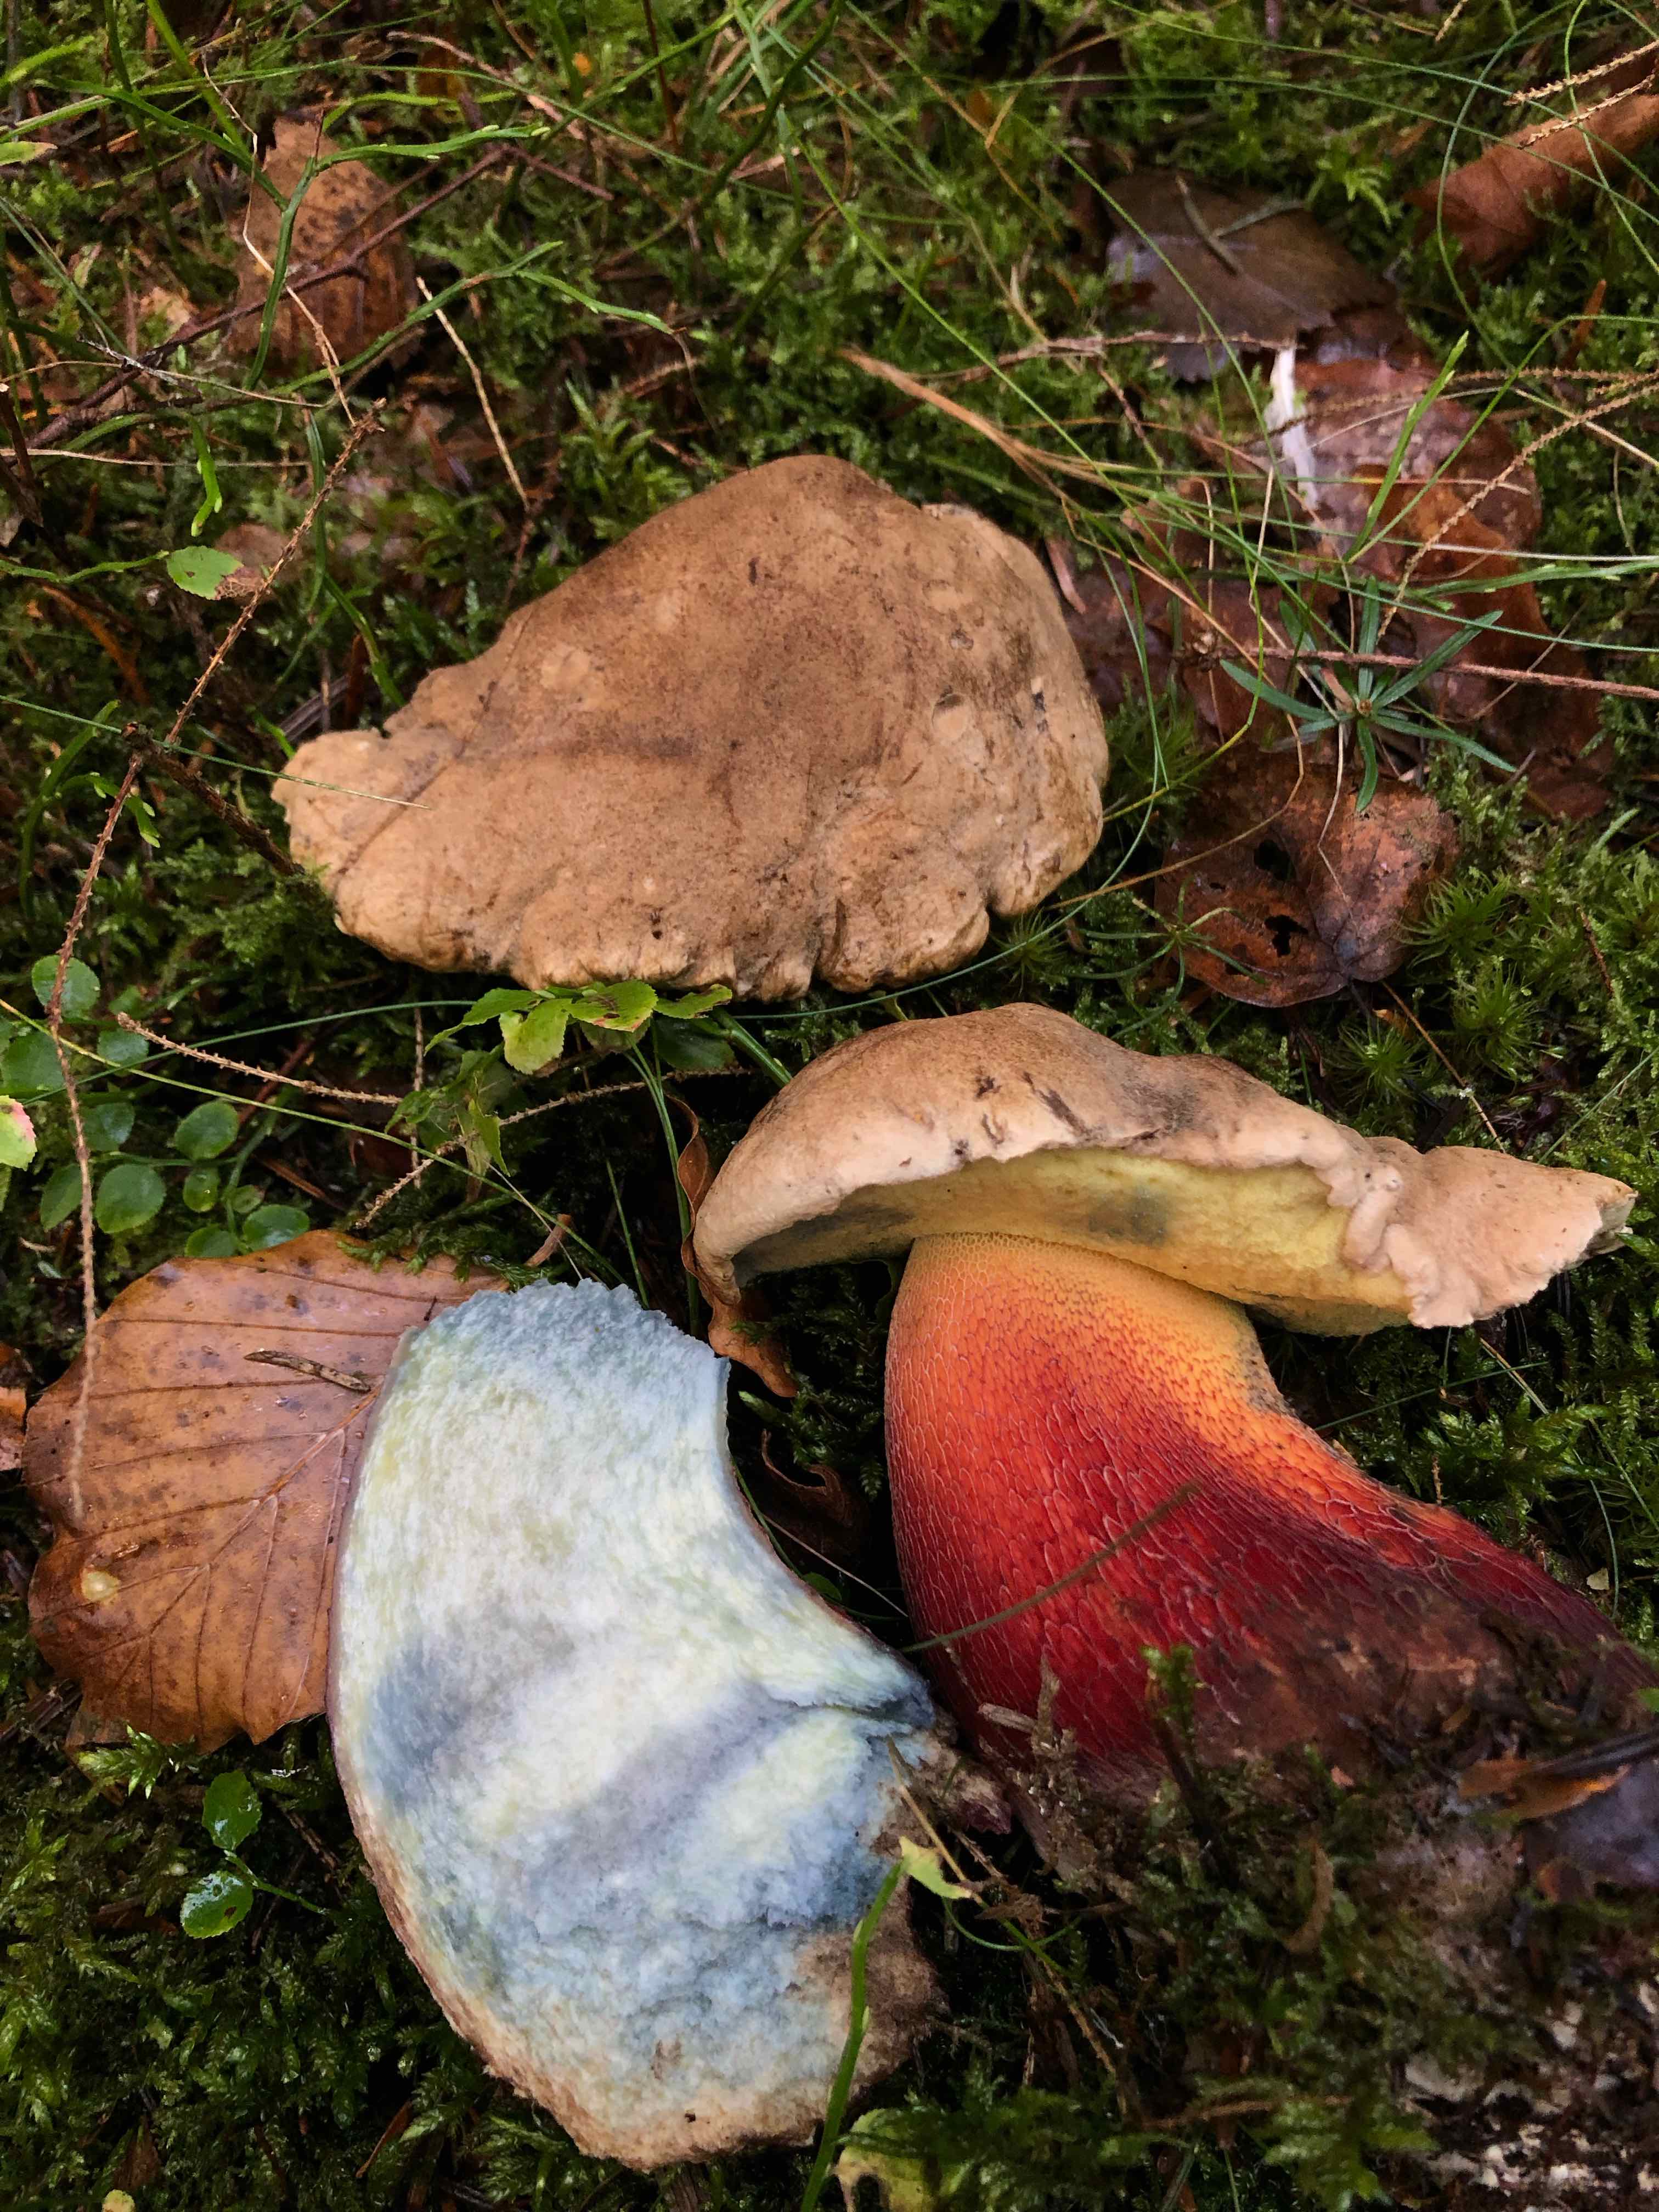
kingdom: Fungi
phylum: Basidiomycota
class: Agaricomycetes
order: Boletales
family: Boletaceae
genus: Caloboletus
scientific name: Caloboletus calopus
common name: skønfodet rørhat
